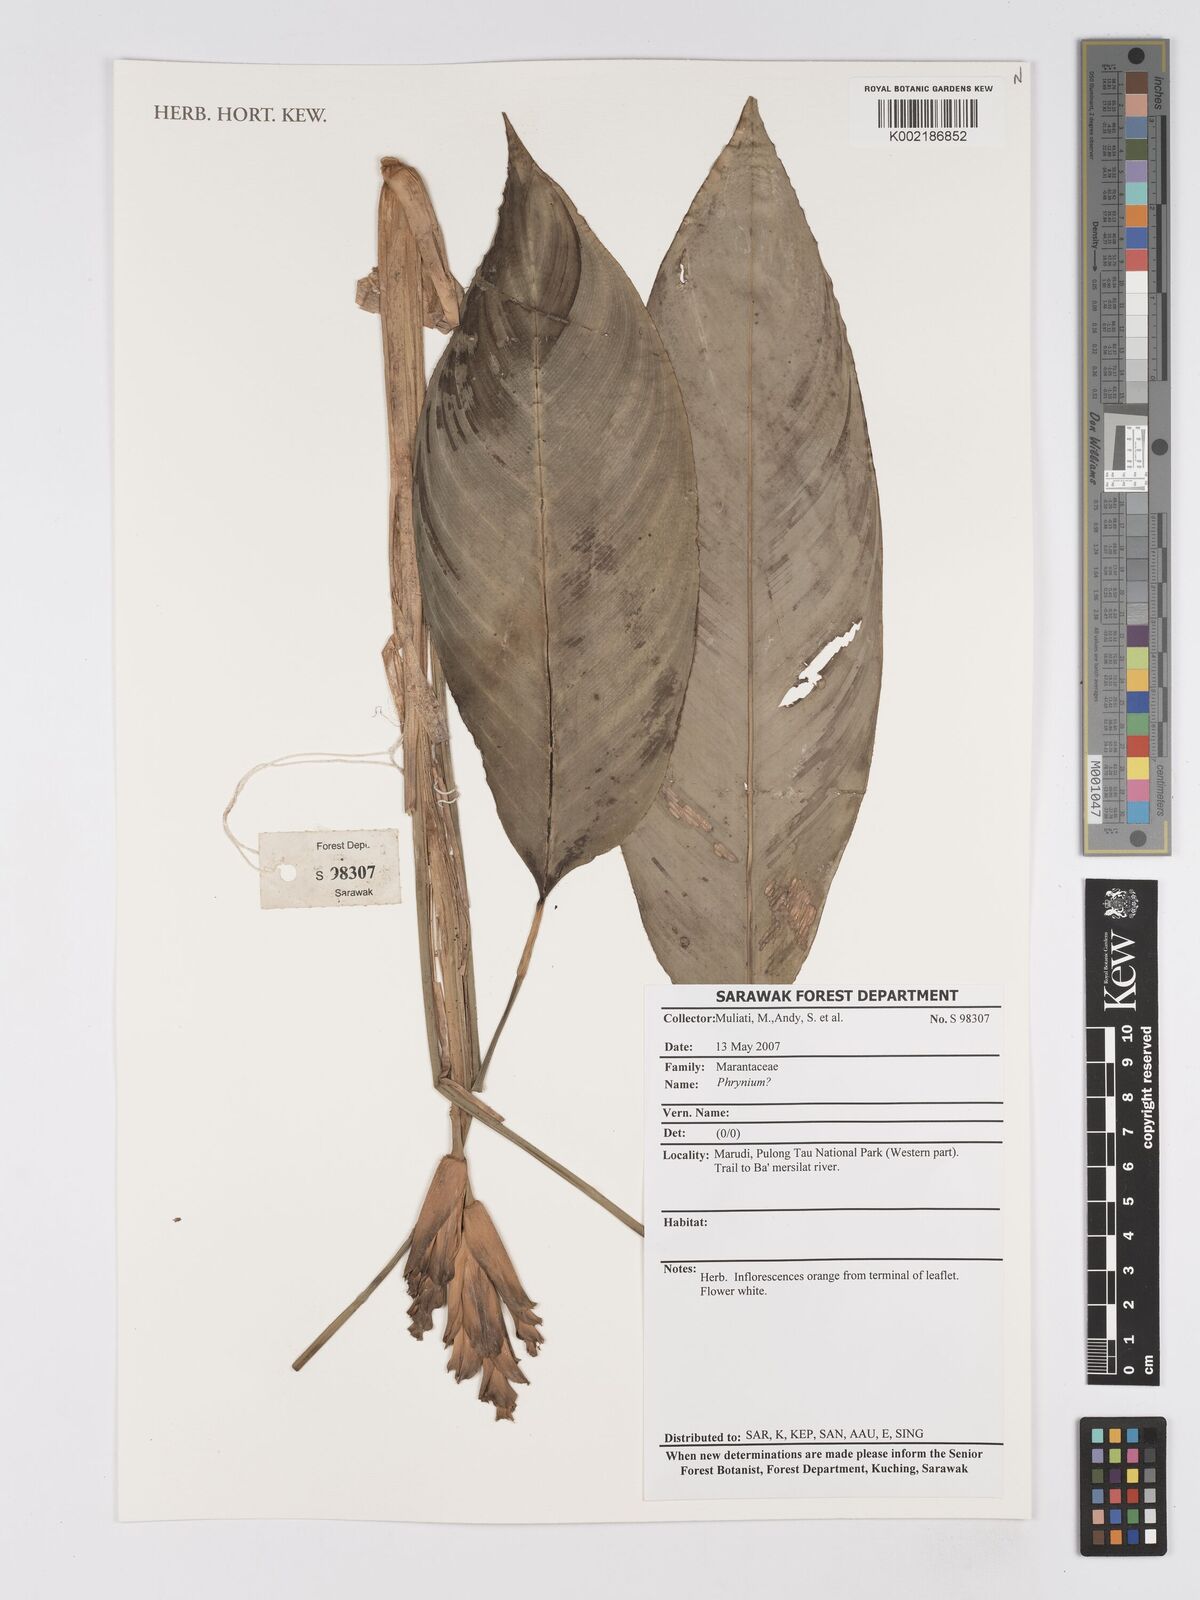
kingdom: Plantae
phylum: Tracheophyta
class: Liliopsida
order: Zingiberales
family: Marantaceae
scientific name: Marantaceae
